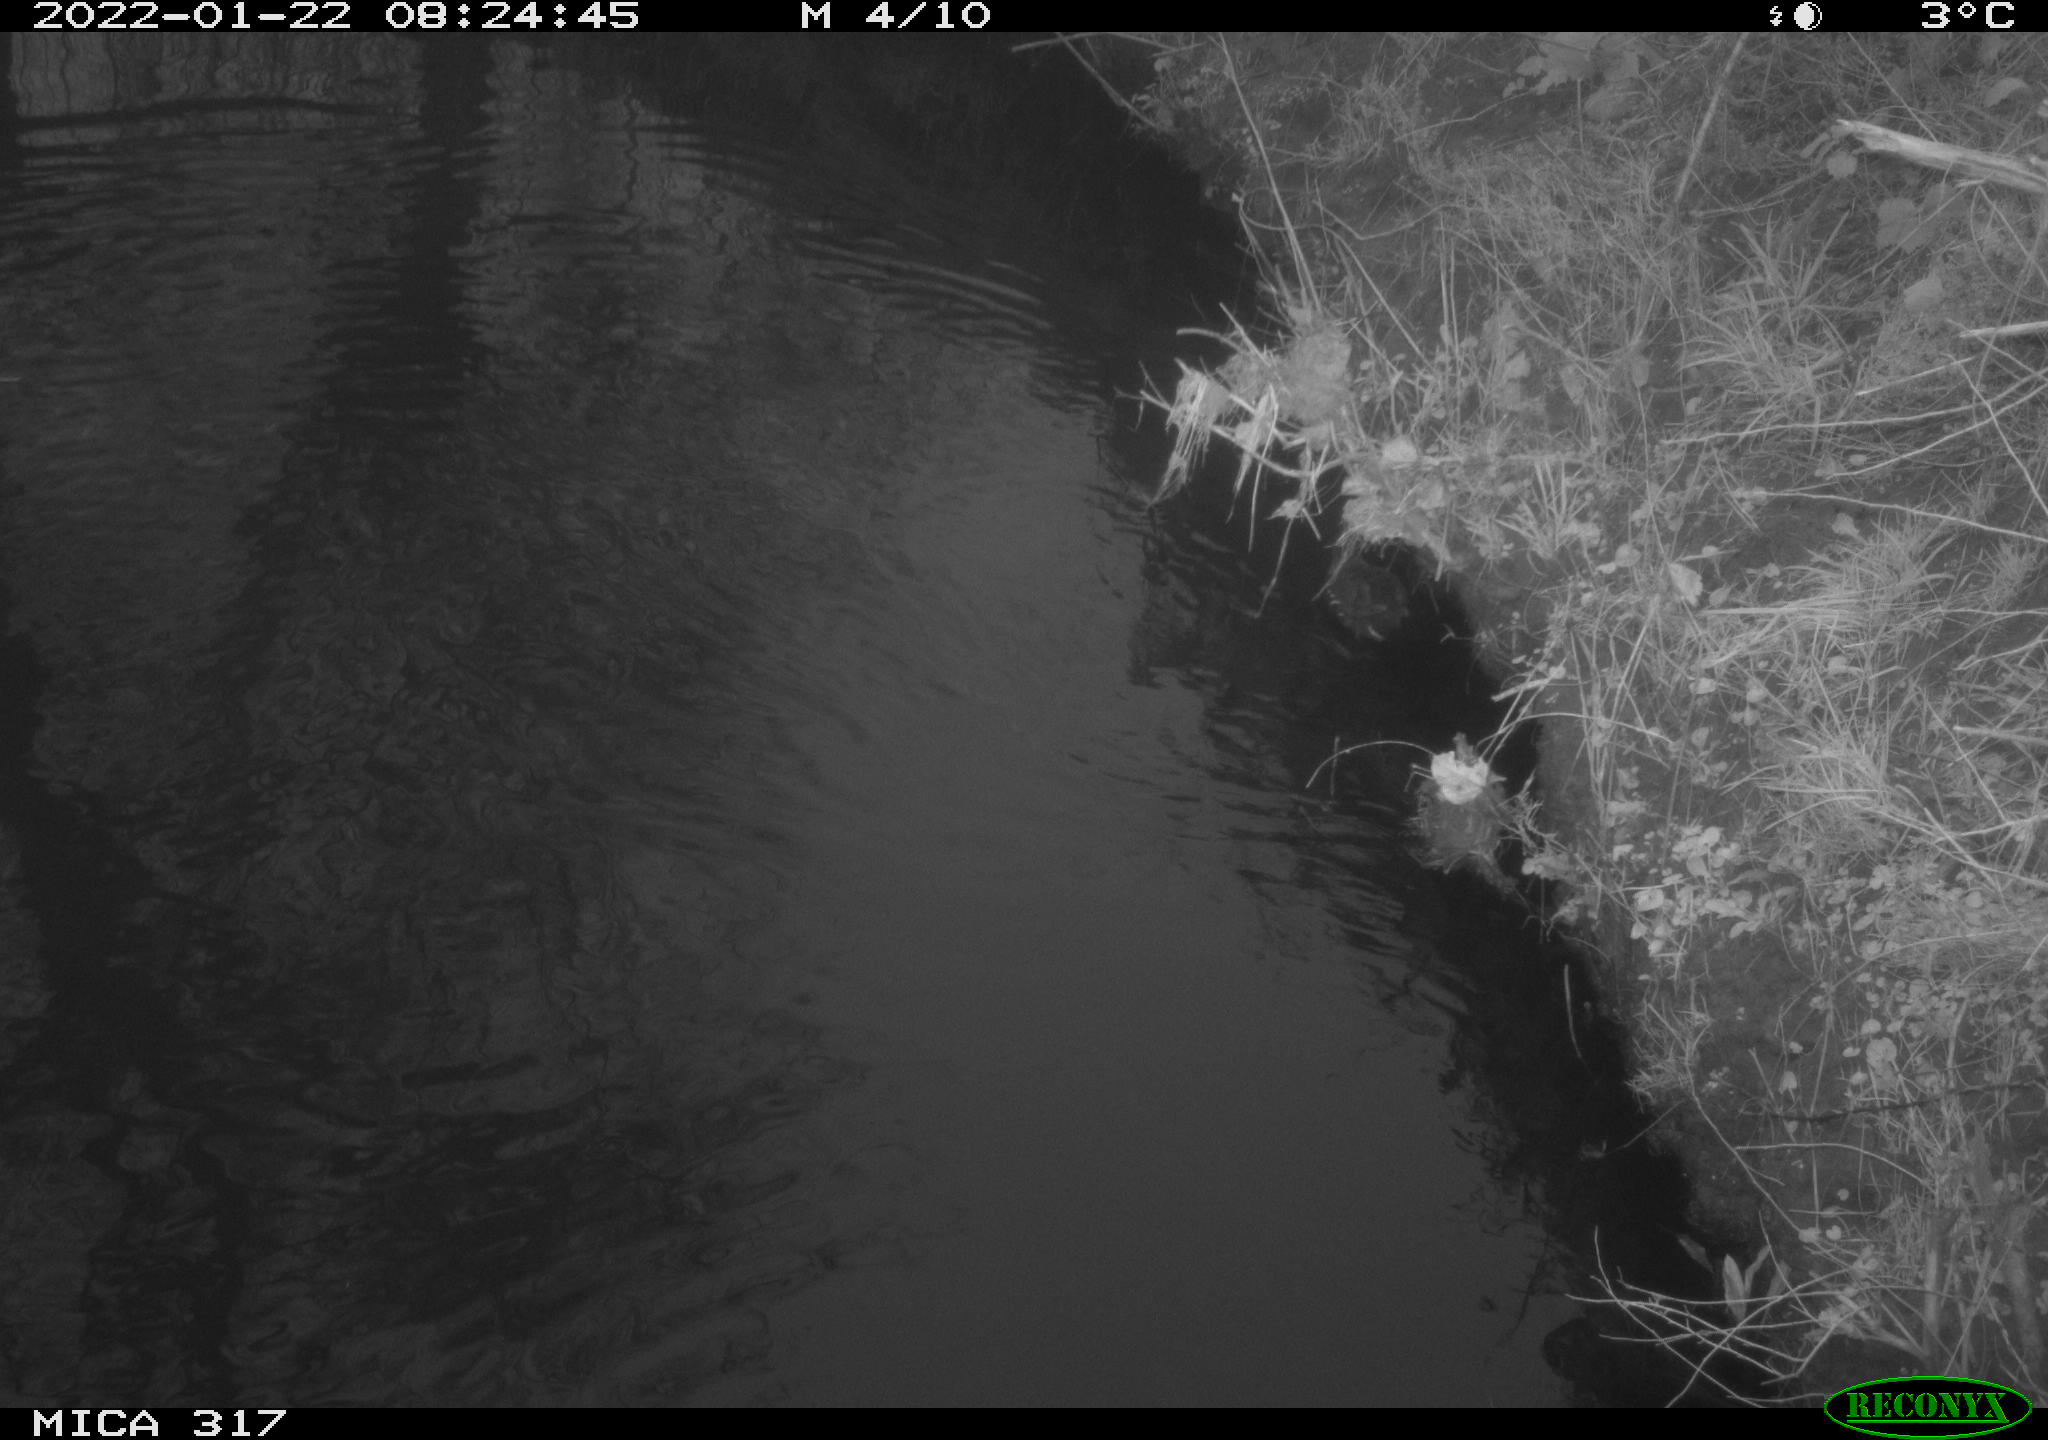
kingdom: Animalia
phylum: Chordata
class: Aves
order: Gruiformes
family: Rallidae
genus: Gallinula
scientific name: Gallinula chloropus
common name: Common moorhen
